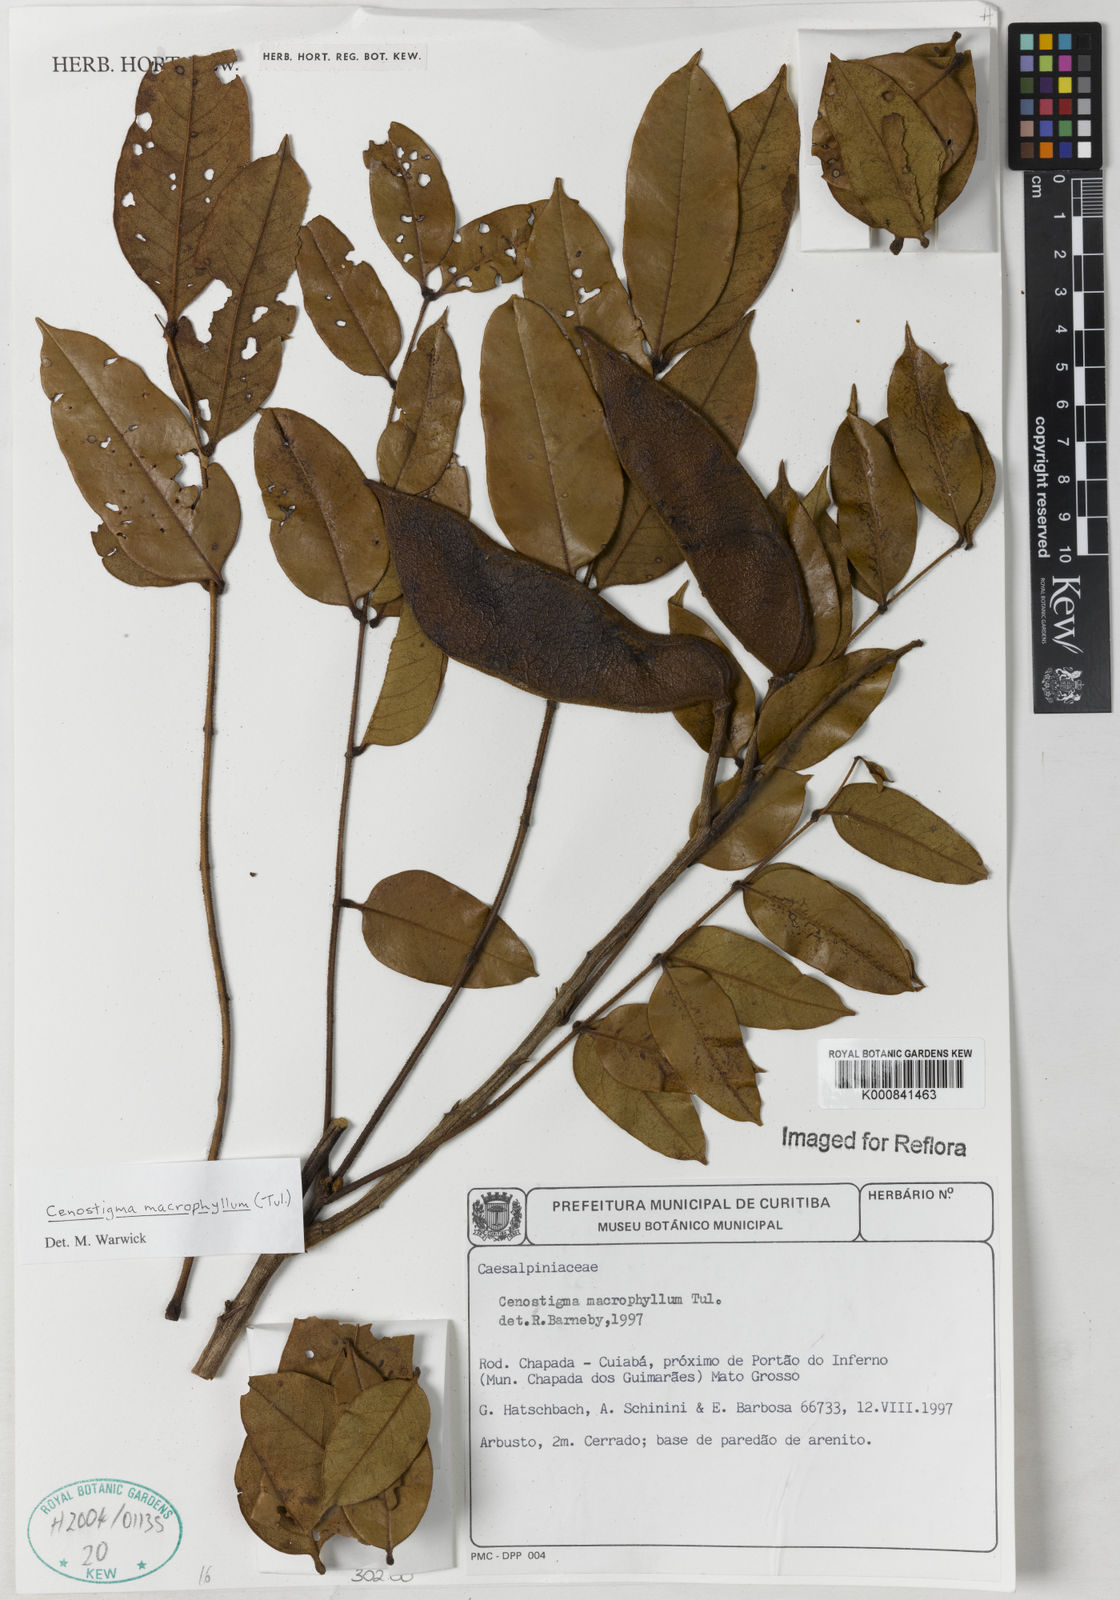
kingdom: Plantae
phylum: Tracheophyta
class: Magnoliopsida
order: Fabales
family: Fabaceae
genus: Cenostigma
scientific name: Cenostigma macrophyllum
